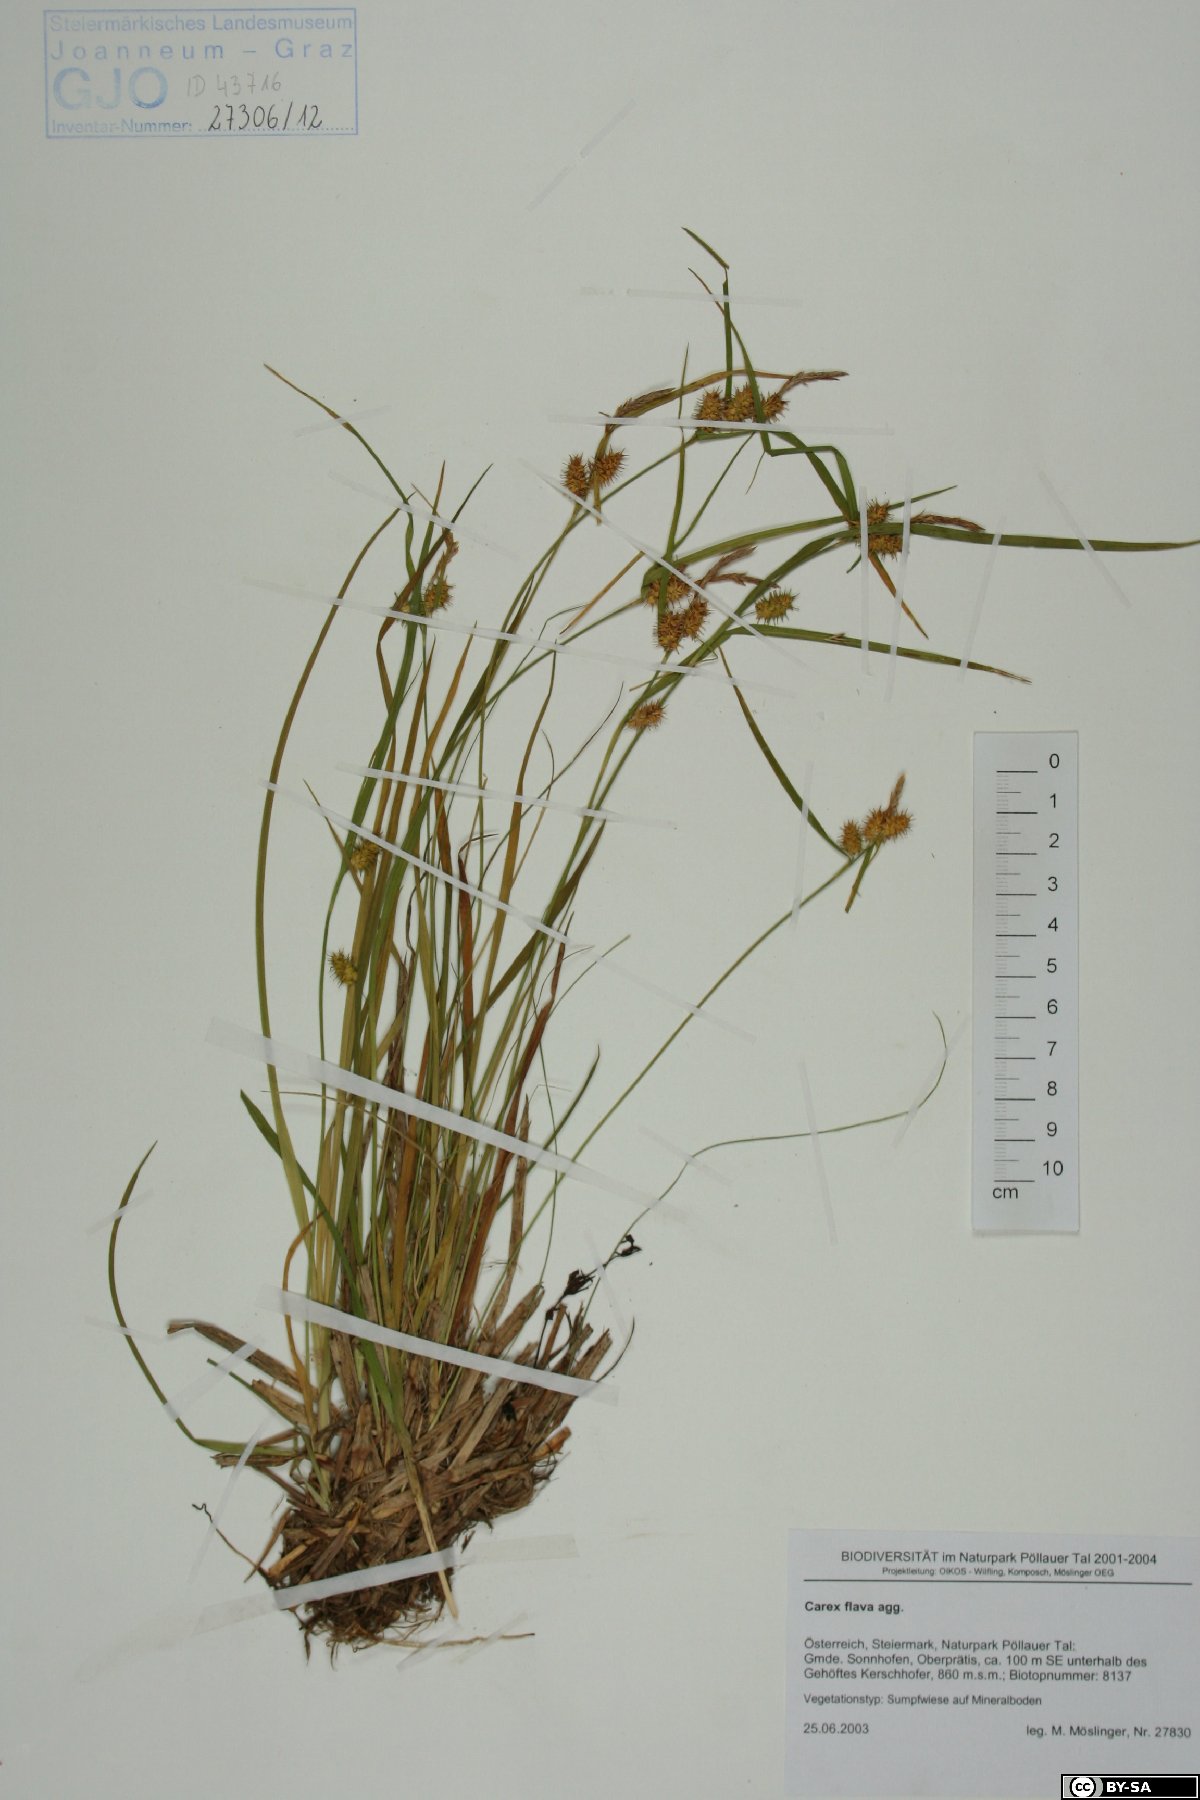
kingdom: Plantae
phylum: Tracheophyta
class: Liliopsida
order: Poales
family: Cyperaceae
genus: Carex
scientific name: Carex flava
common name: Large yellow-sedge
